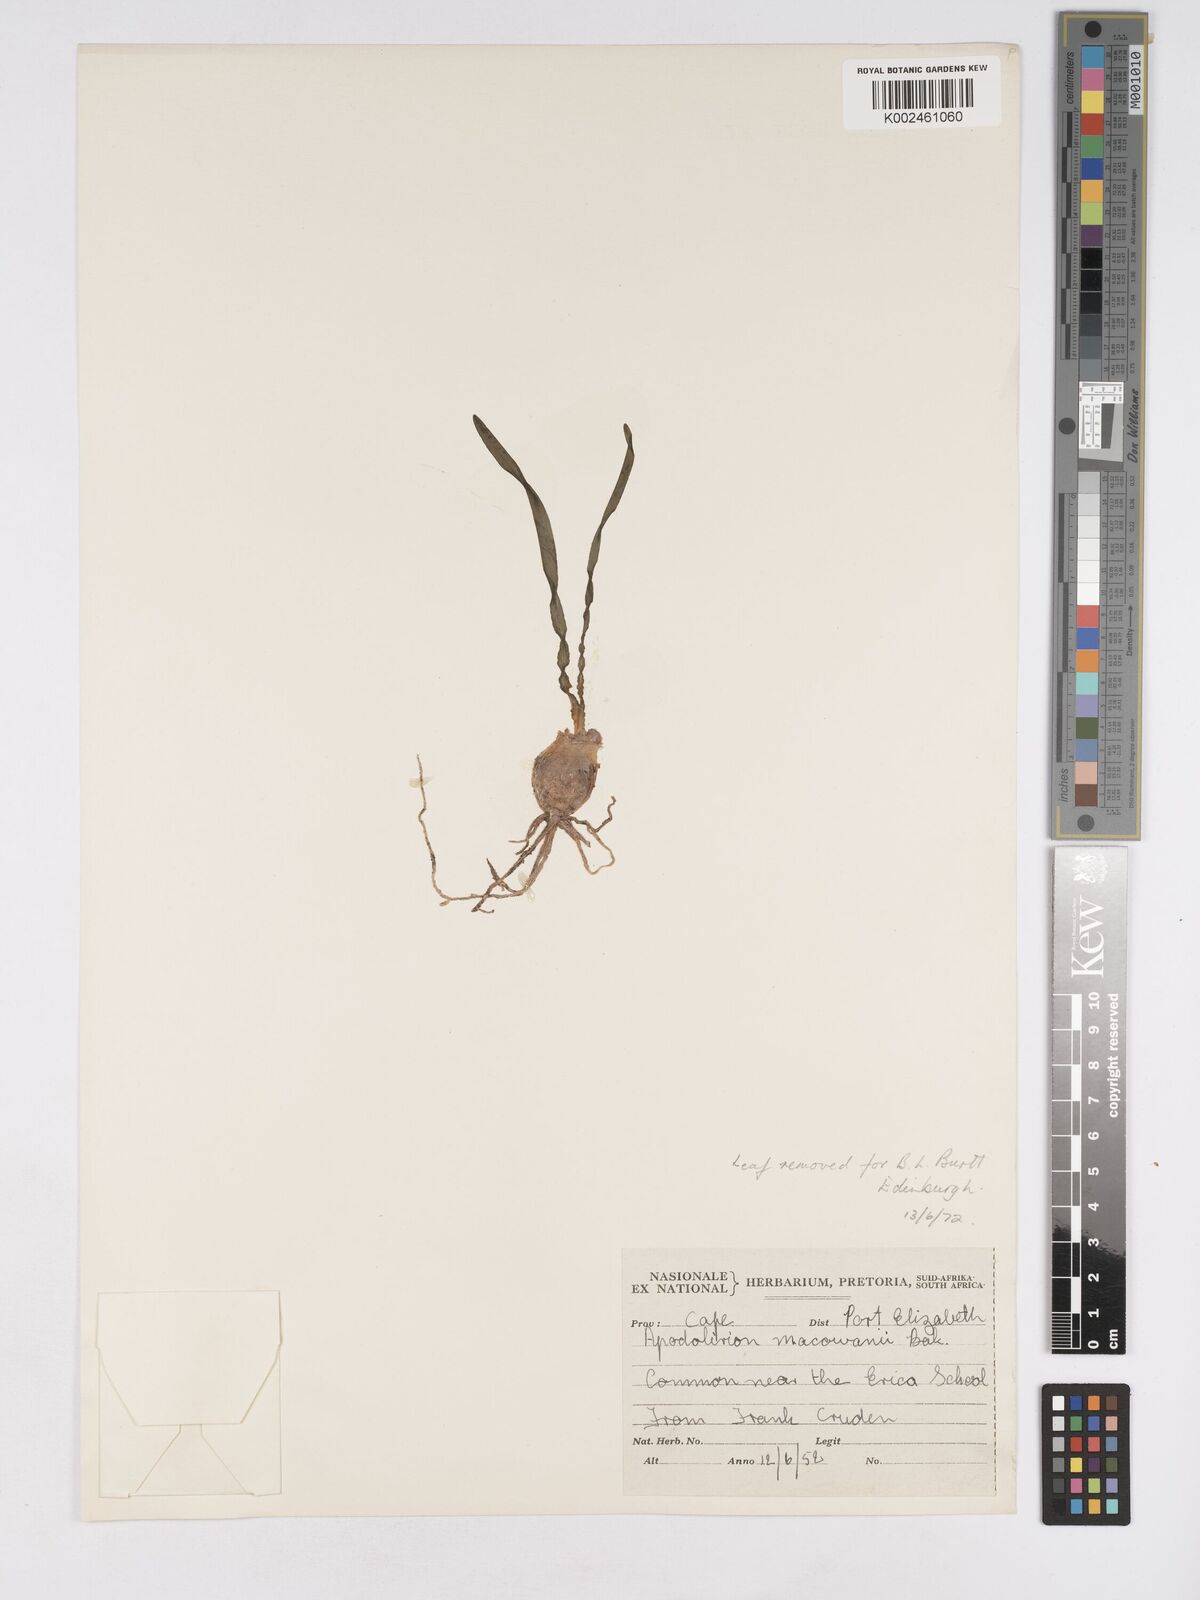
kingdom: Plantae
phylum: Tracheophyta
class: Liliopsida
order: Asparagales
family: Amaryllidaceae
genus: Apodolirion
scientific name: Apodolirion macowanii
